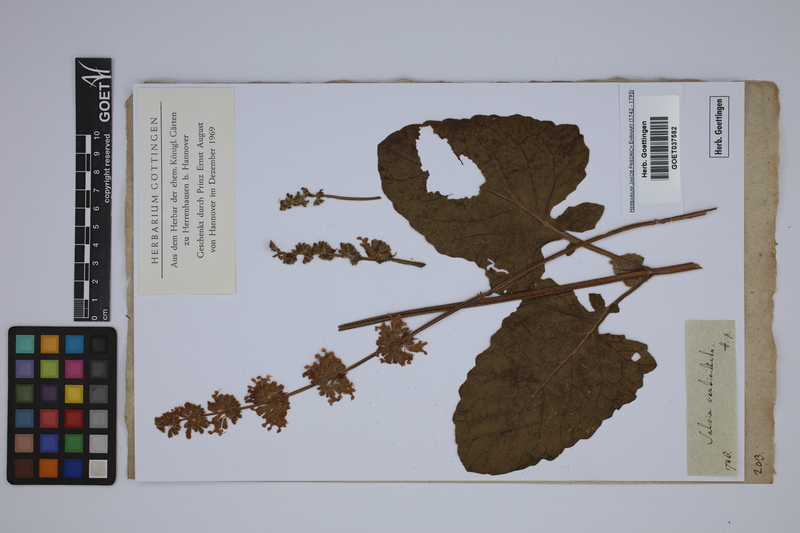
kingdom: Plantae
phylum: Tracheophyta
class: Magnoliopsida
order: Lamiales
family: Lamiaceae
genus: Salvia
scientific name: Salvia verticillata
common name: Whorled clary
